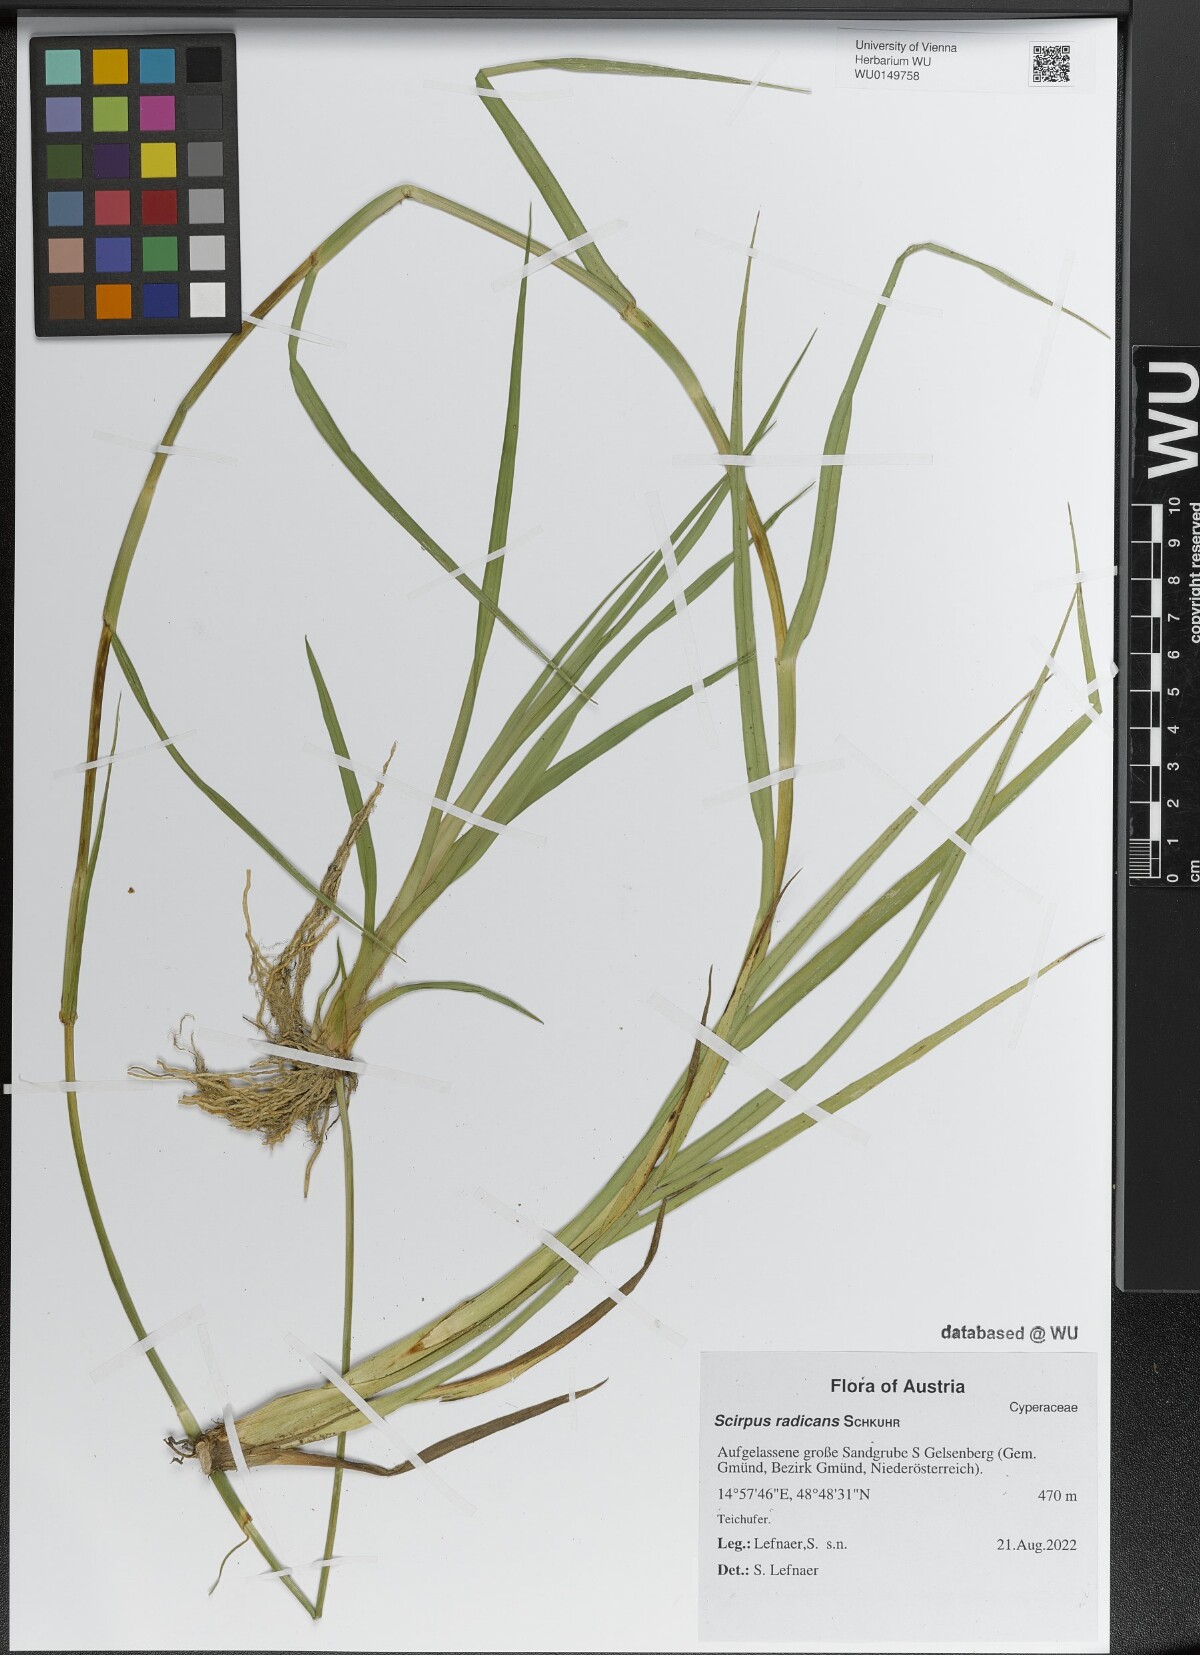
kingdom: Plantae
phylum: Tracheophyta
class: Liliopsida
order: Poales
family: Cyperaceae
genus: Scirpus
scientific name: Scirpus radicans
